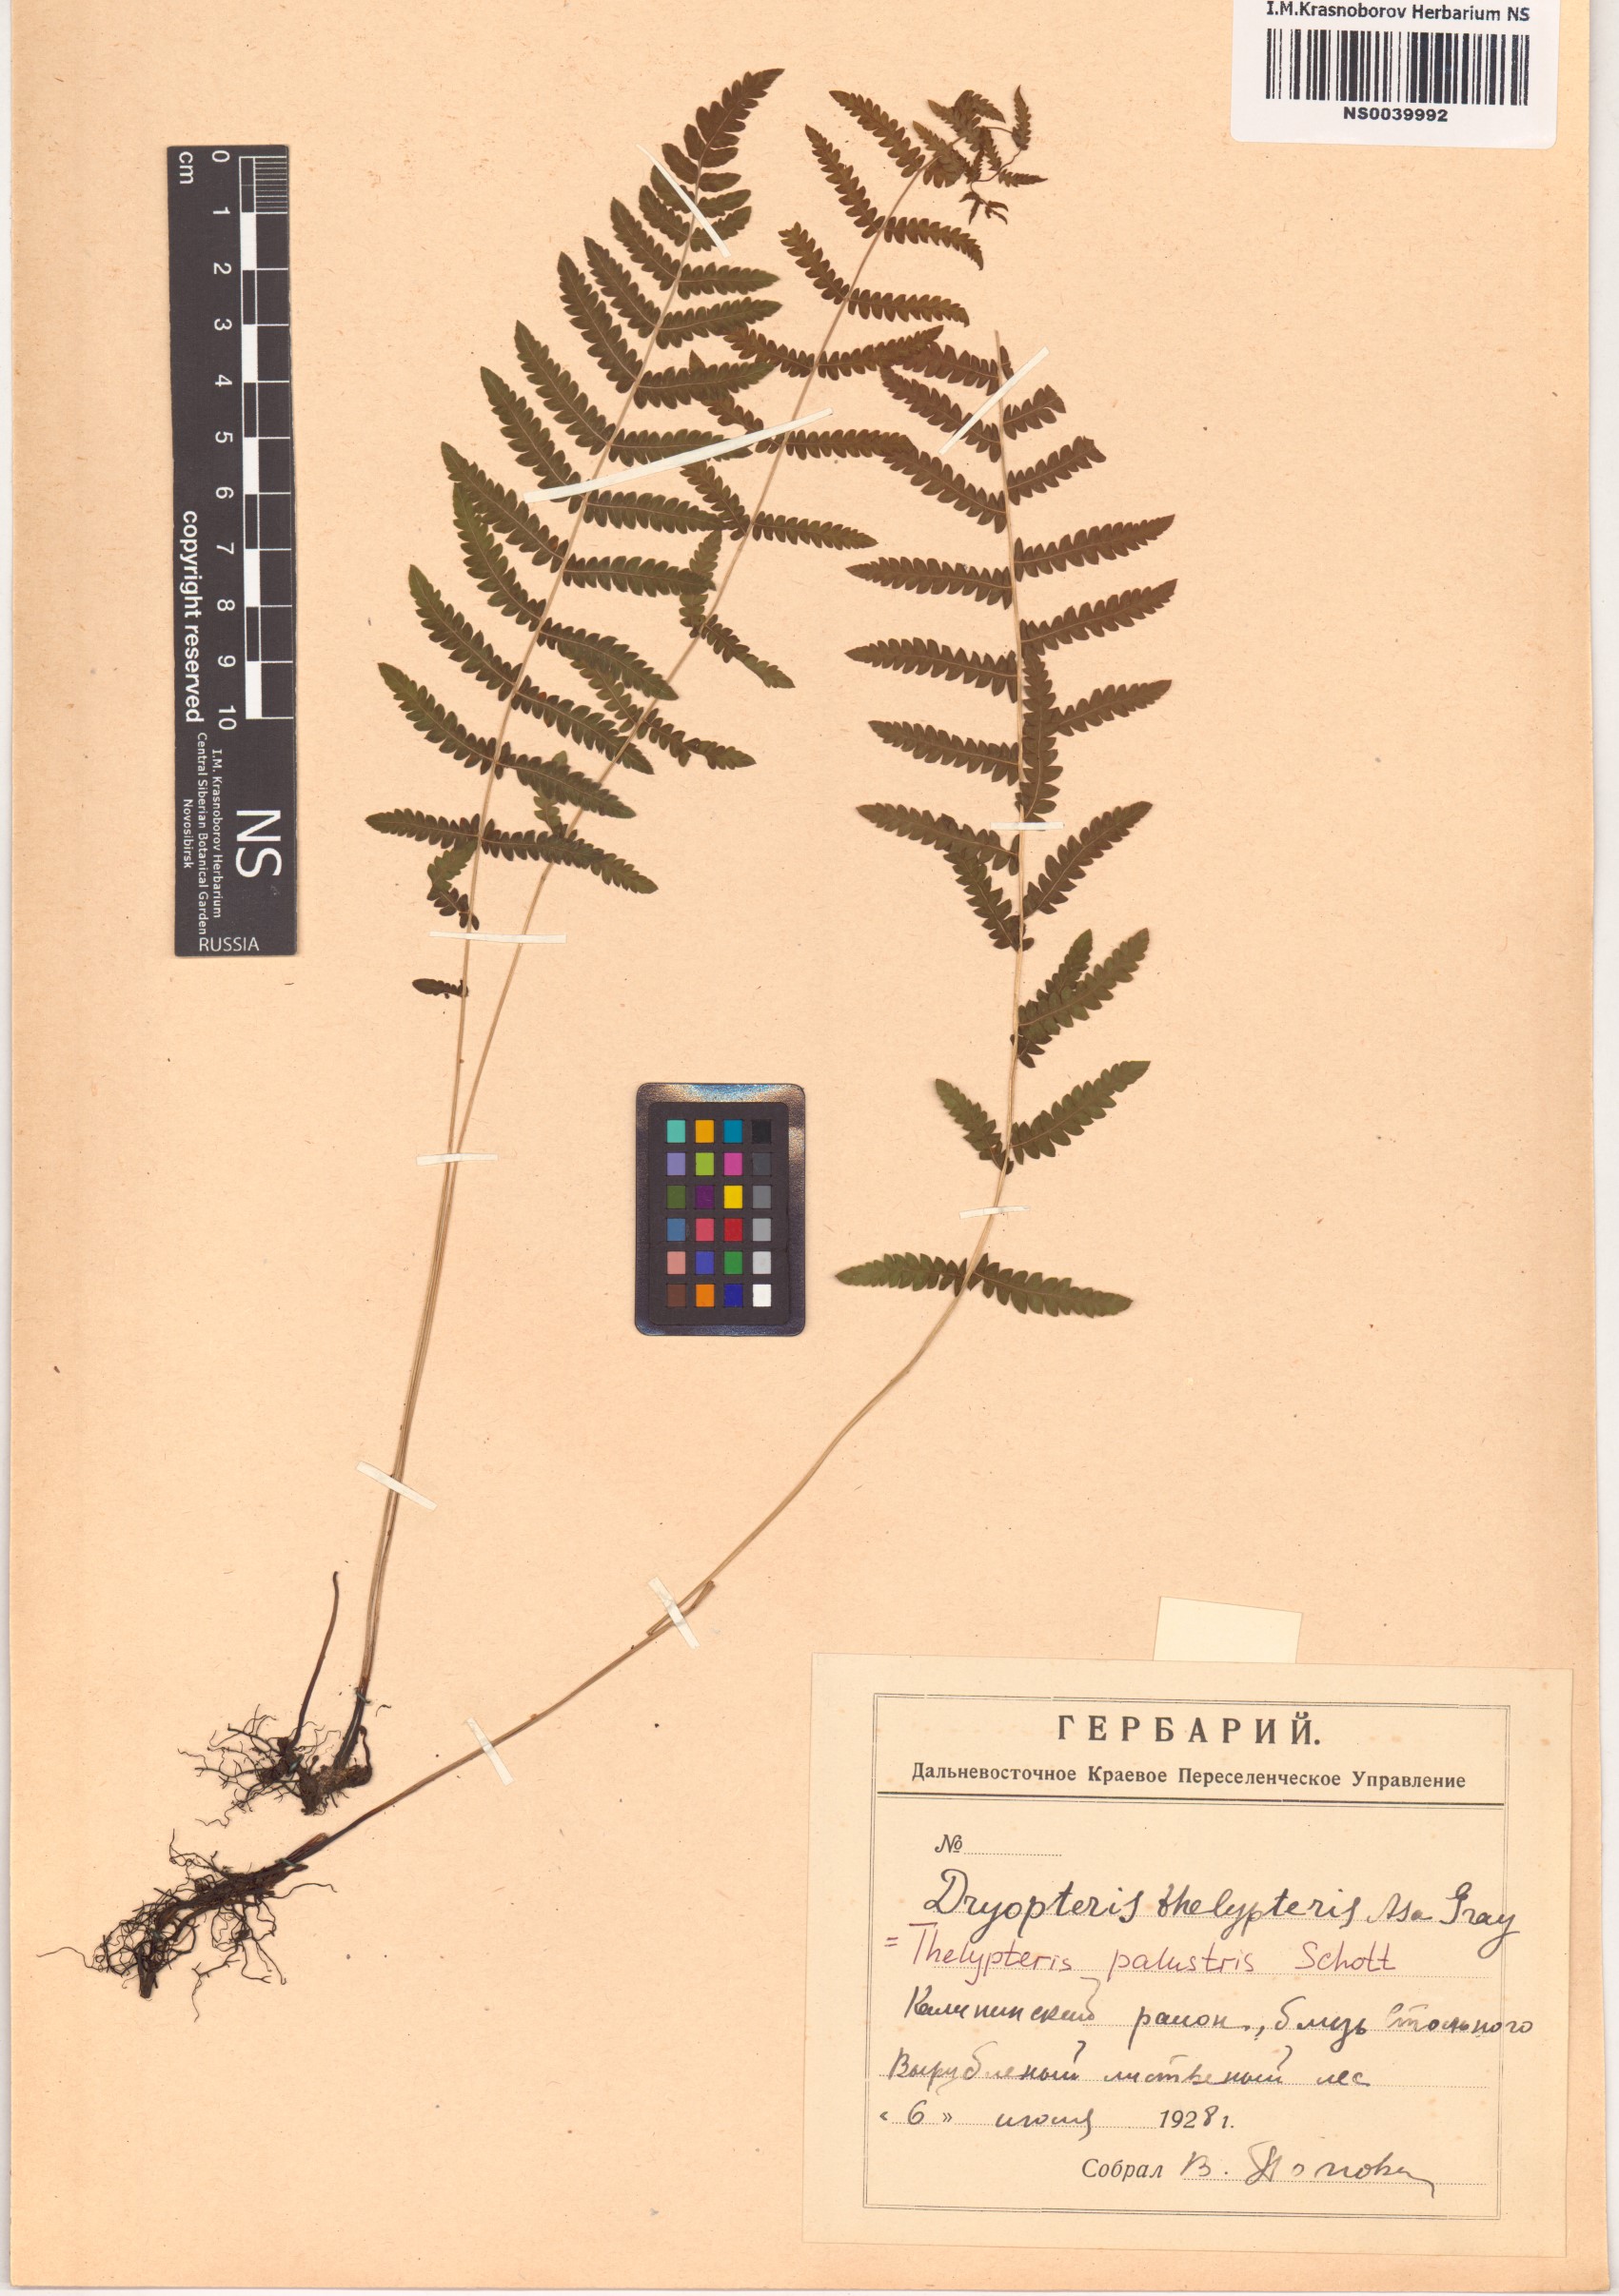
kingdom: Plantae
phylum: Tracheophyta
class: Polypodiopsida
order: Polypodiales
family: Thelypteridaceae
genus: Thelypteris
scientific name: Thelypteris palustris
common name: Marsh fern
